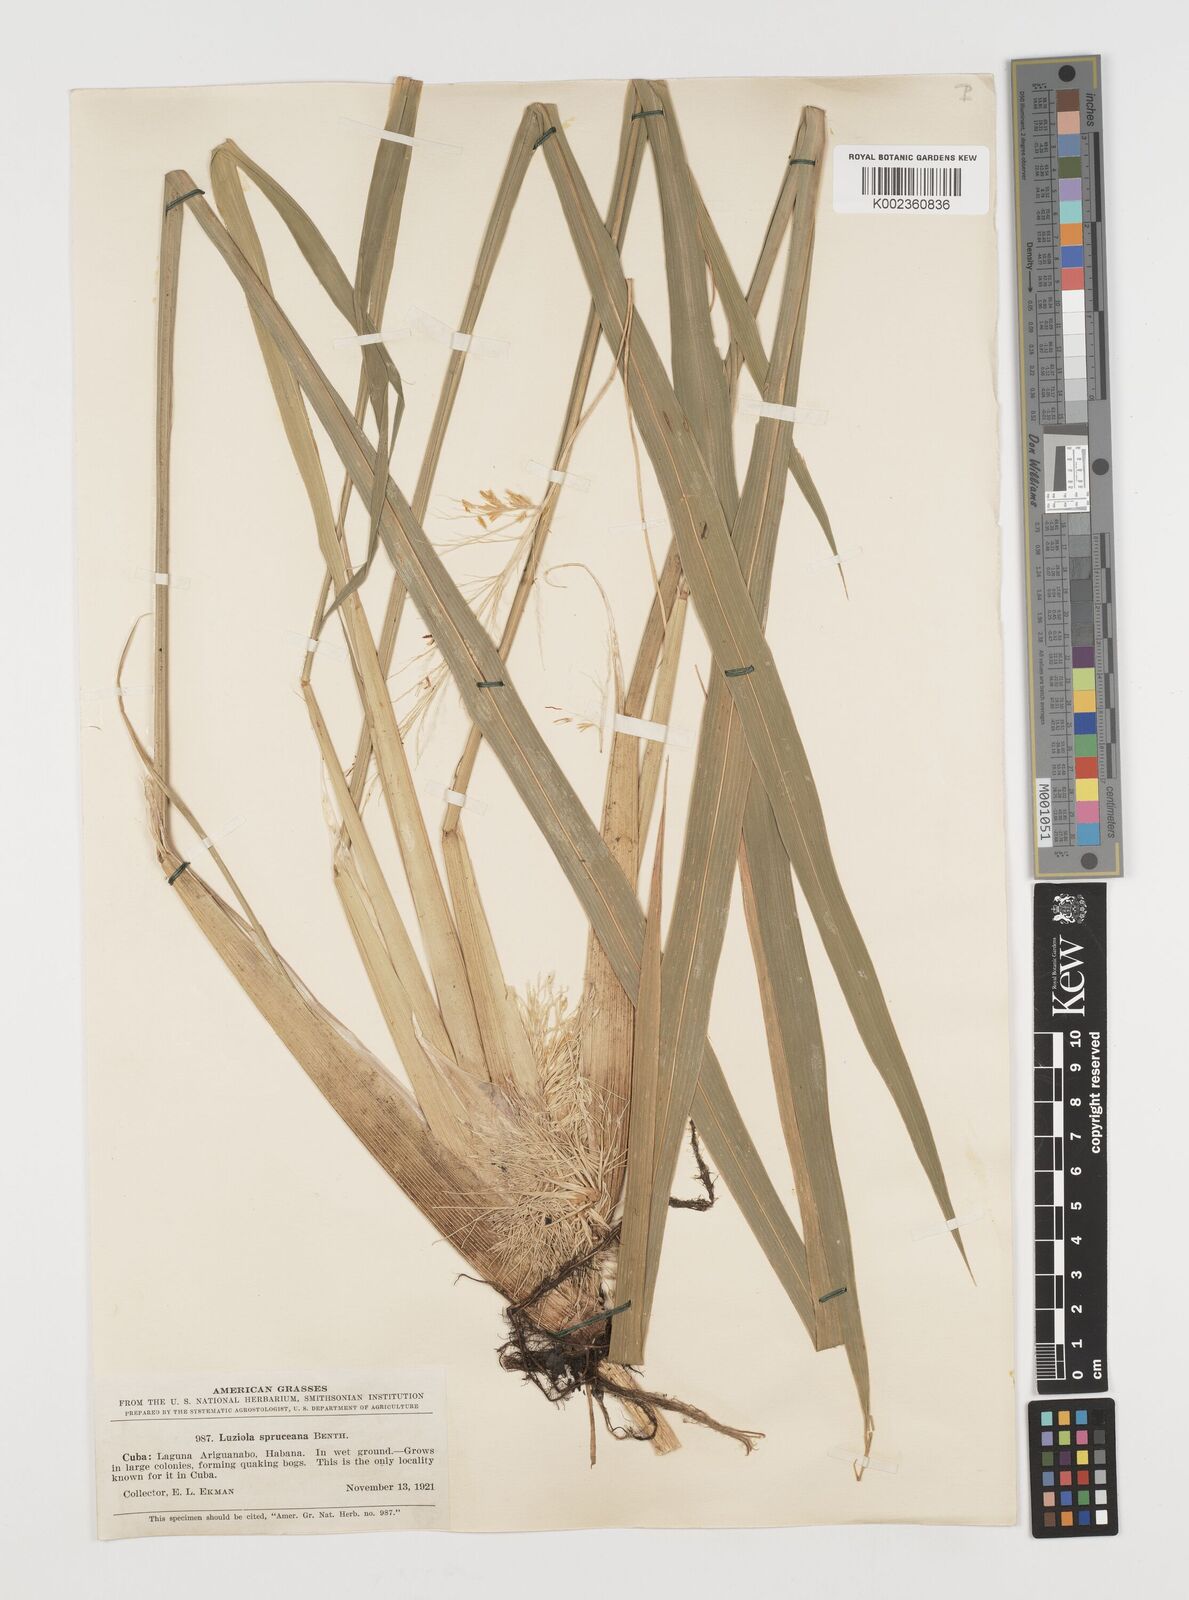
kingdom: Plantae
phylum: Tracheophyta
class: Liliopsida
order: Poales
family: Poaceae
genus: Luziola
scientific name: Luziola subintegra
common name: Large watergrass
